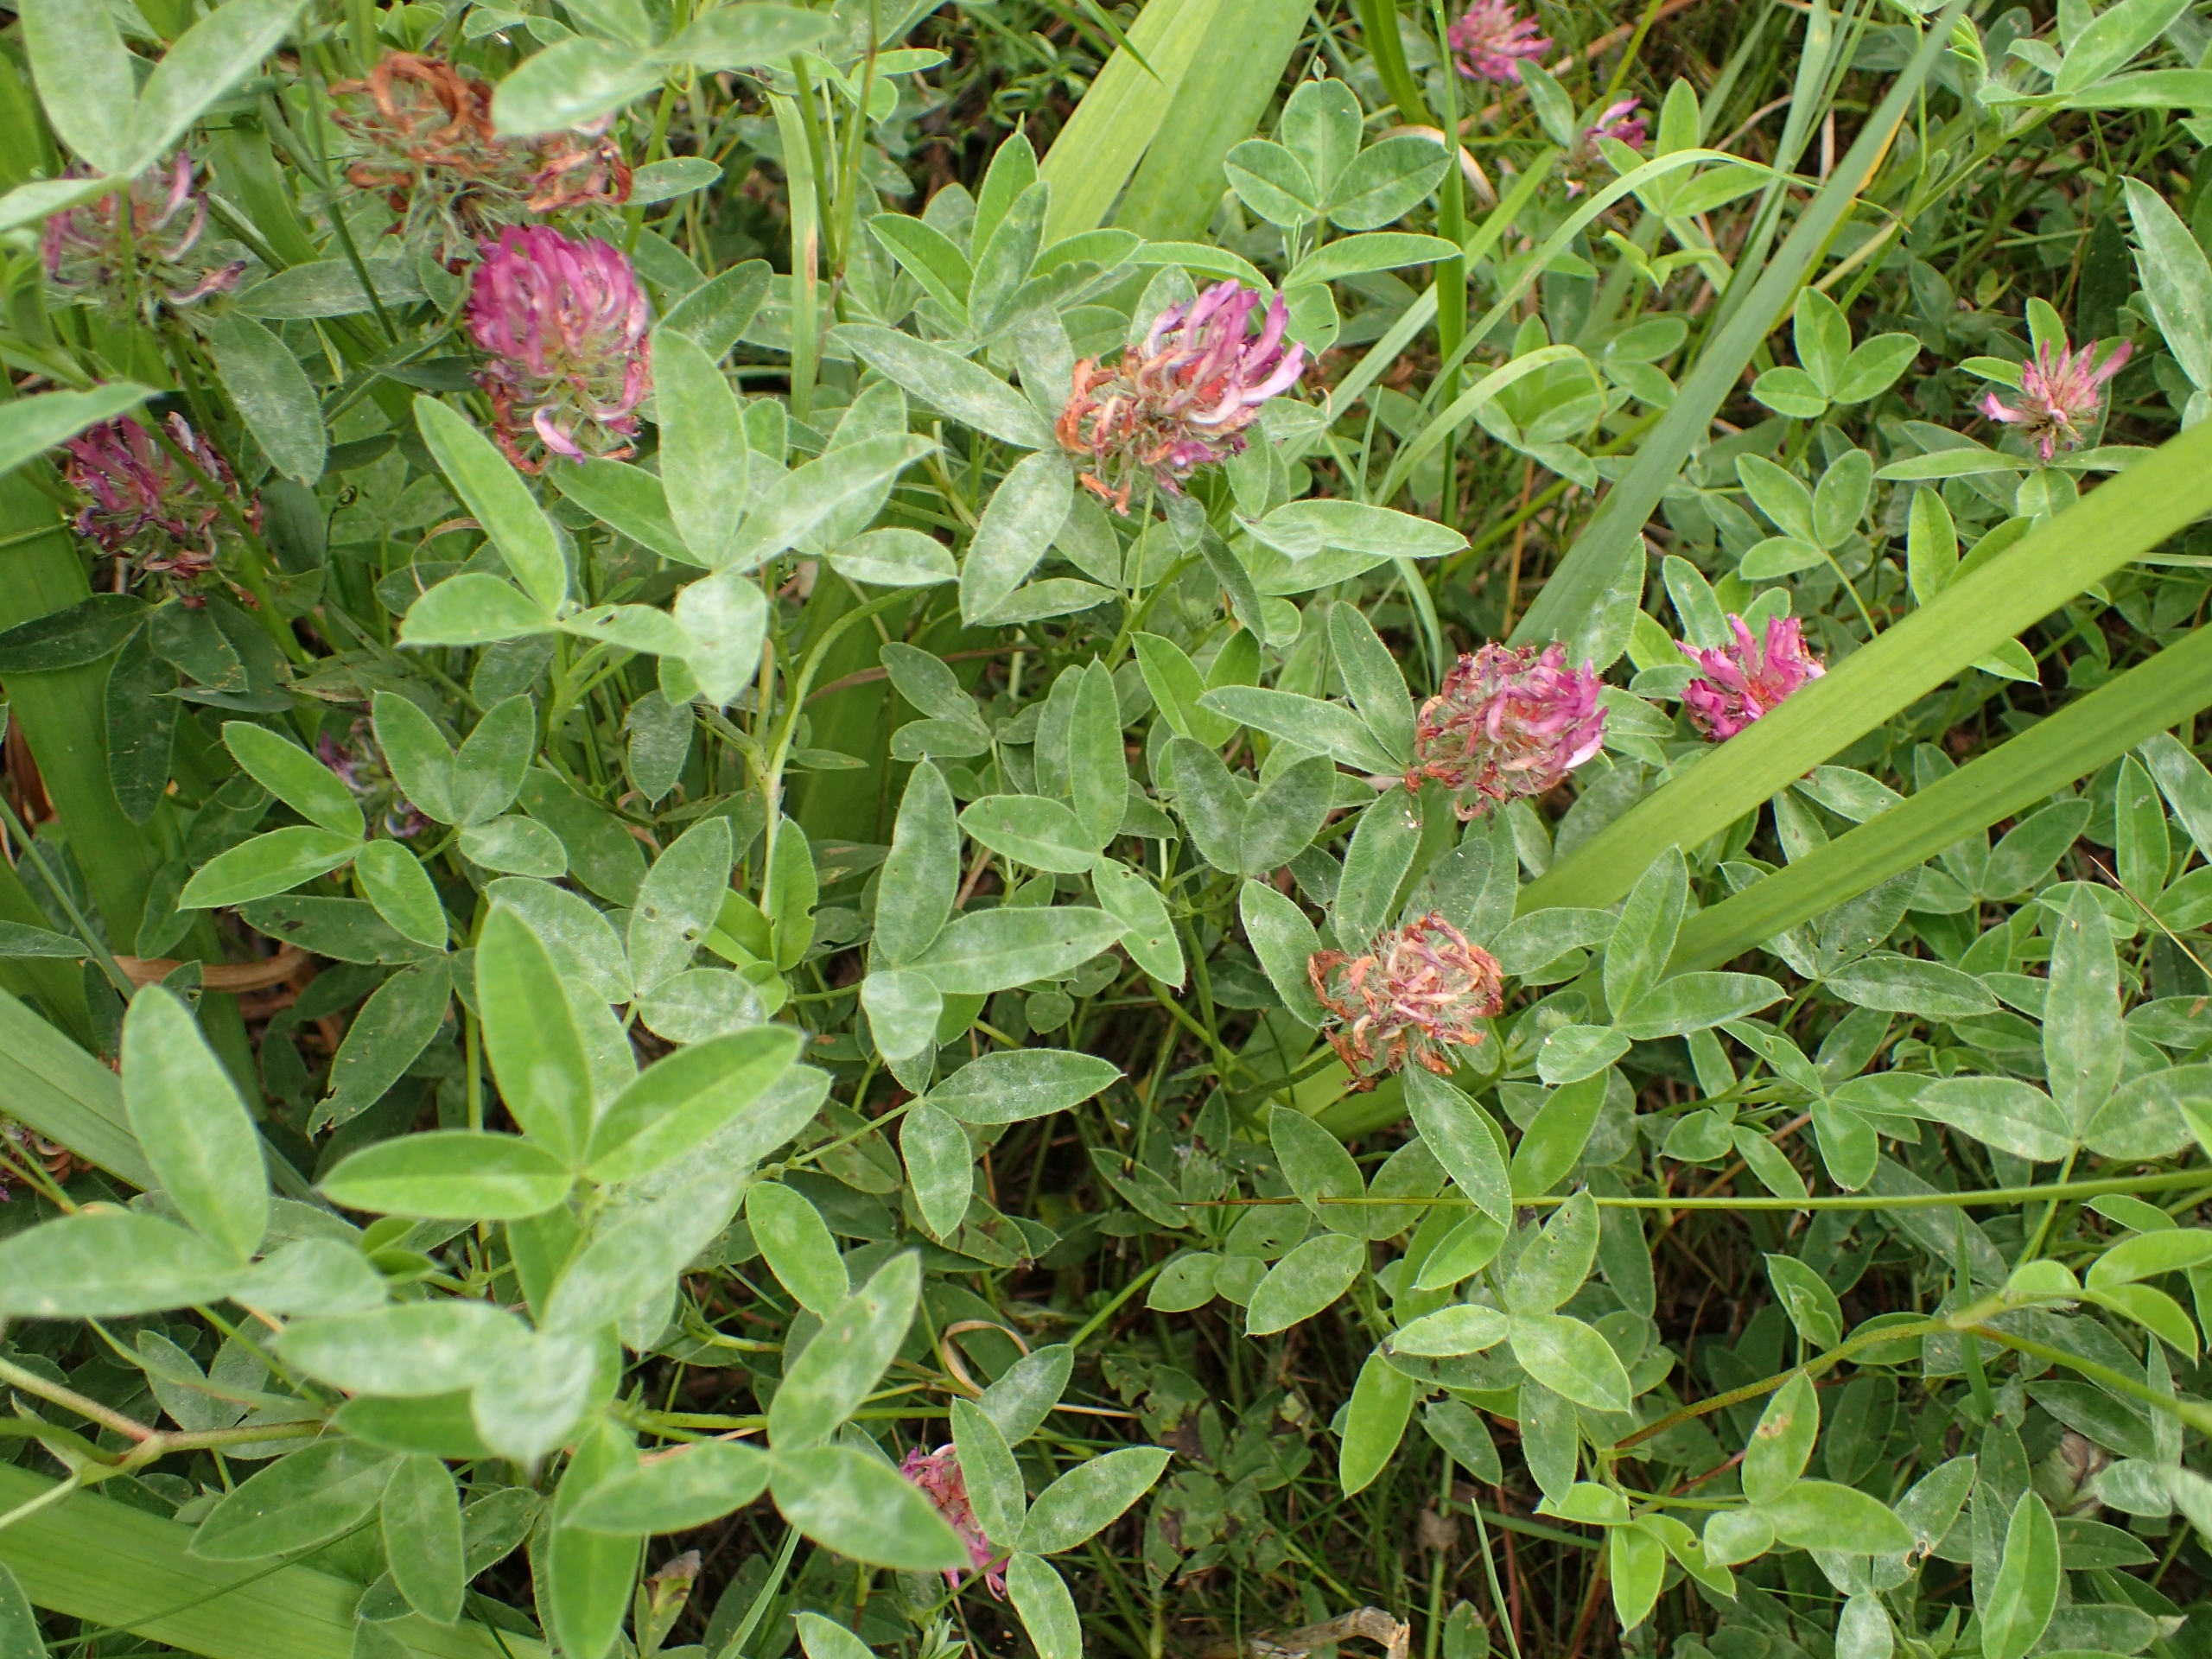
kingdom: Plantae
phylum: Tracheophyta
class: Magnoliopsida
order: Fabales
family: Fabaceae
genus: Trifolium
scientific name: Trifolium medium
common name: Bugtet kløver
